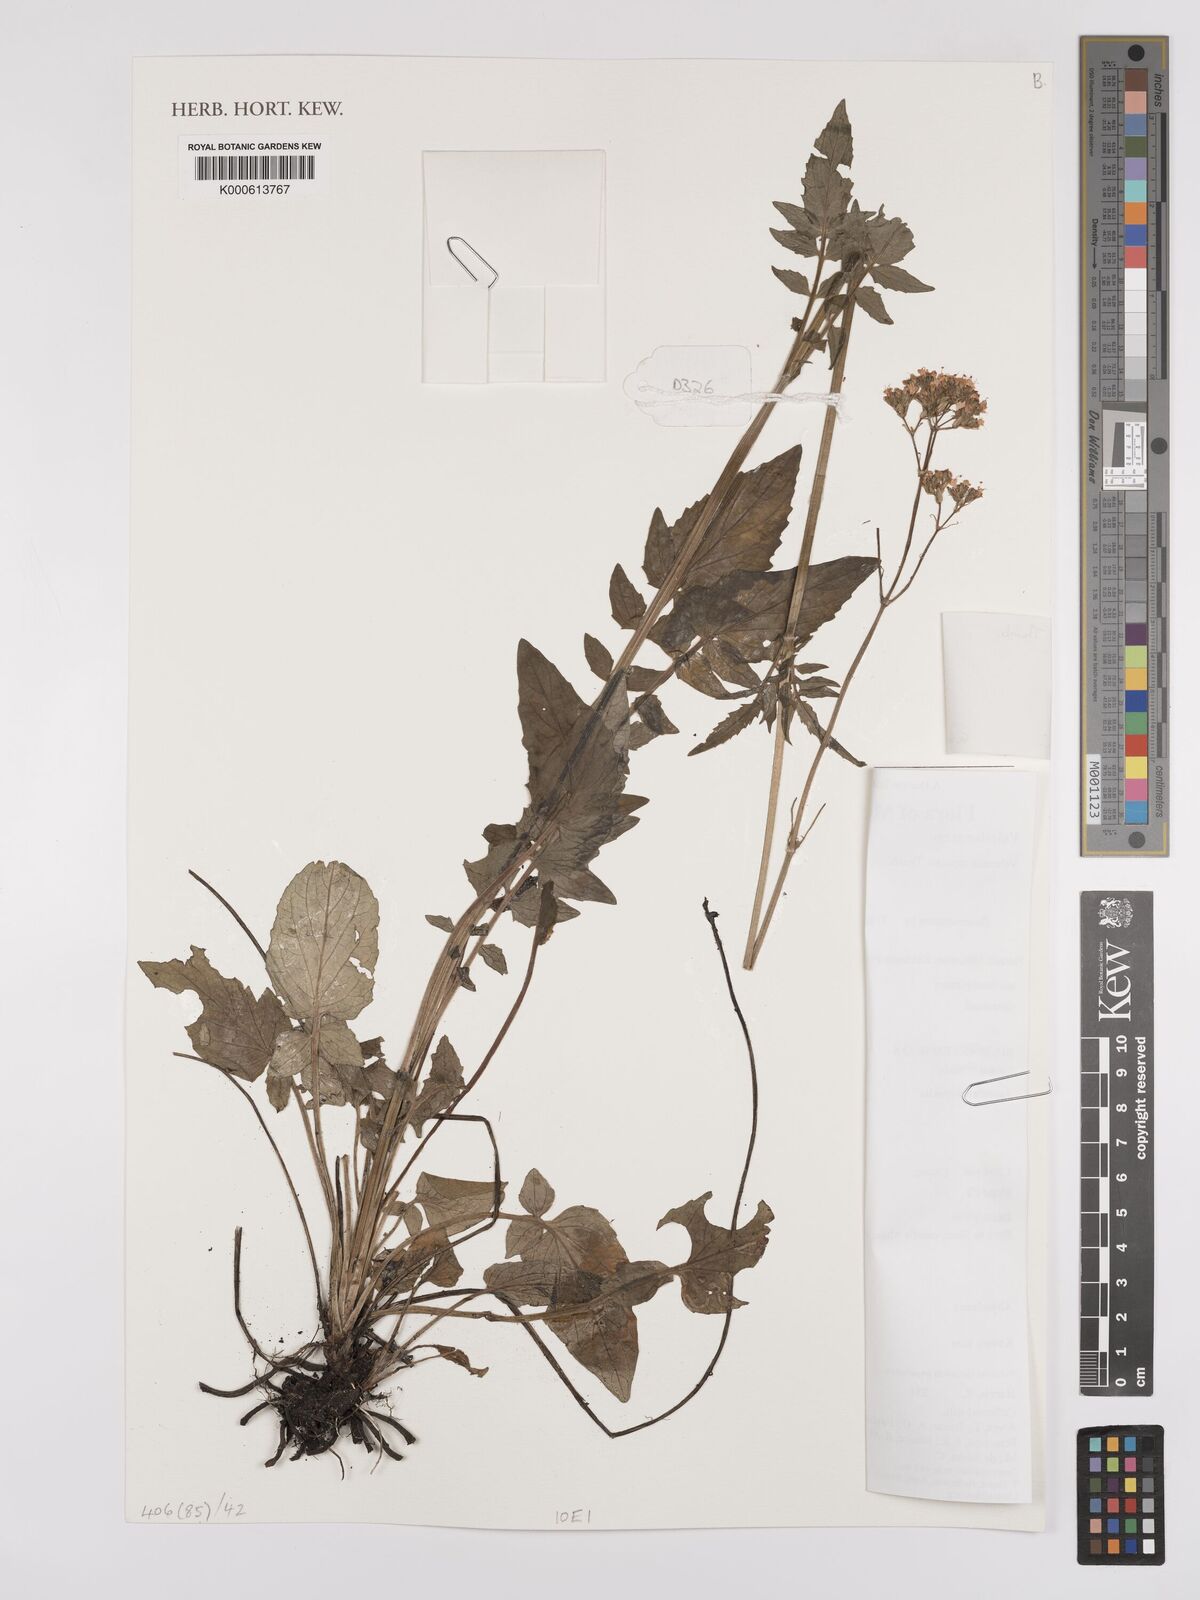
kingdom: Plantae
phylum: Tracheophyta
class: Magnoliopsida
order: Dipsacales
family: Caprifoliaceae
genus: Valeriana
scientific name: Valeriana capensis
